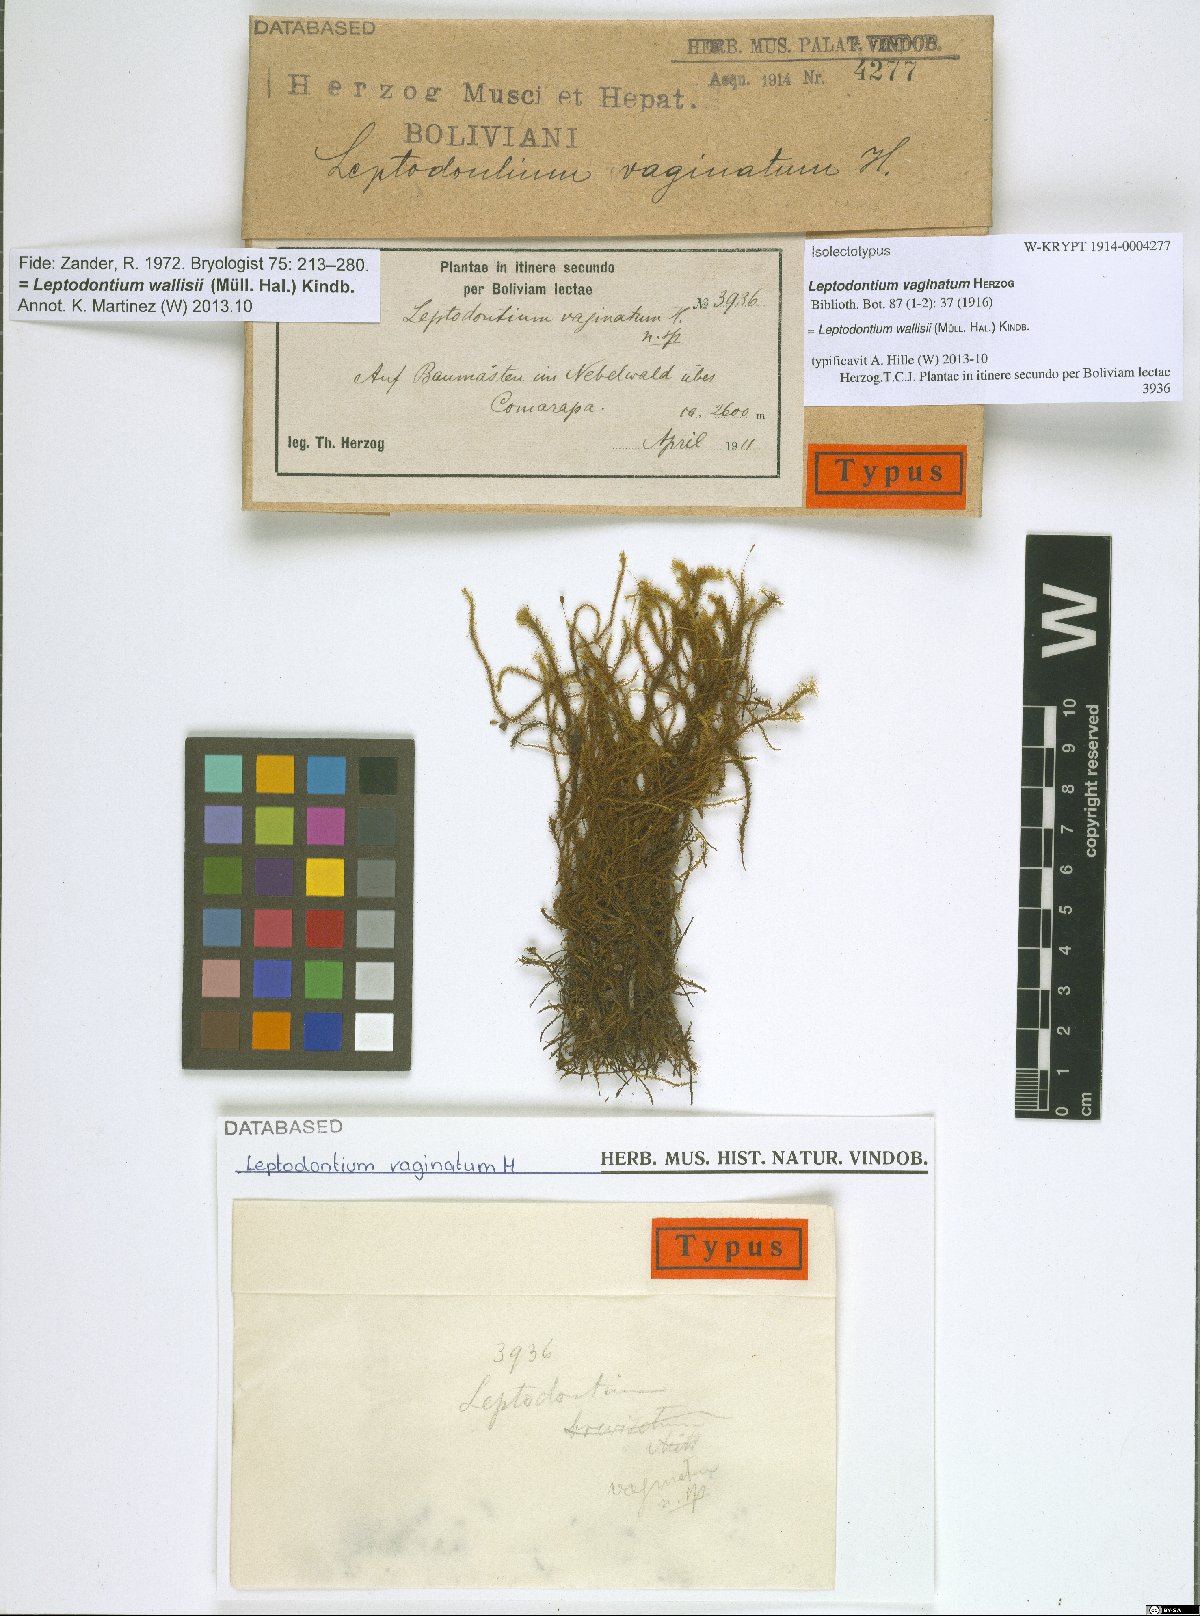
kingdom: Plantae
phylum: Bryophyta
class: Bryopsida
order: Pottiales
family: Pottiaceae
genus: Leptodontium
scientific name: Leptodontium wallisii
